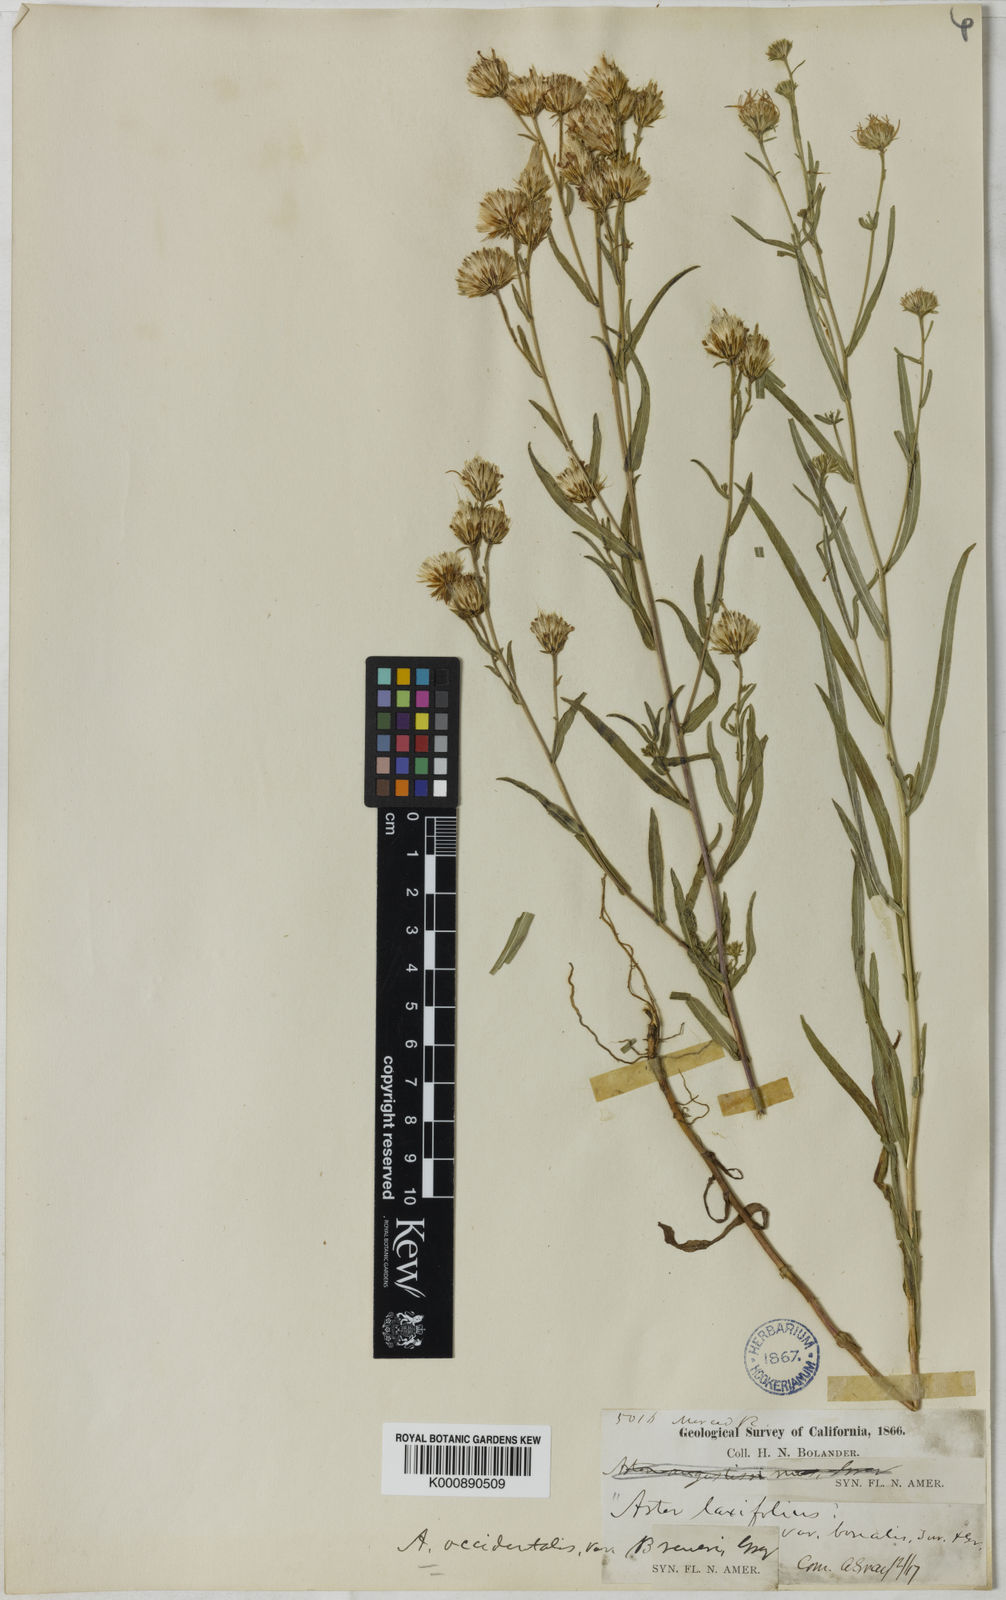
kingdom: Plantae
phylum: Tracheophyta
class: Magnoliopsida
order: Asterales
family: Asteraceae
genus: Eucephalus
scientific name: Eucephalus breweri
